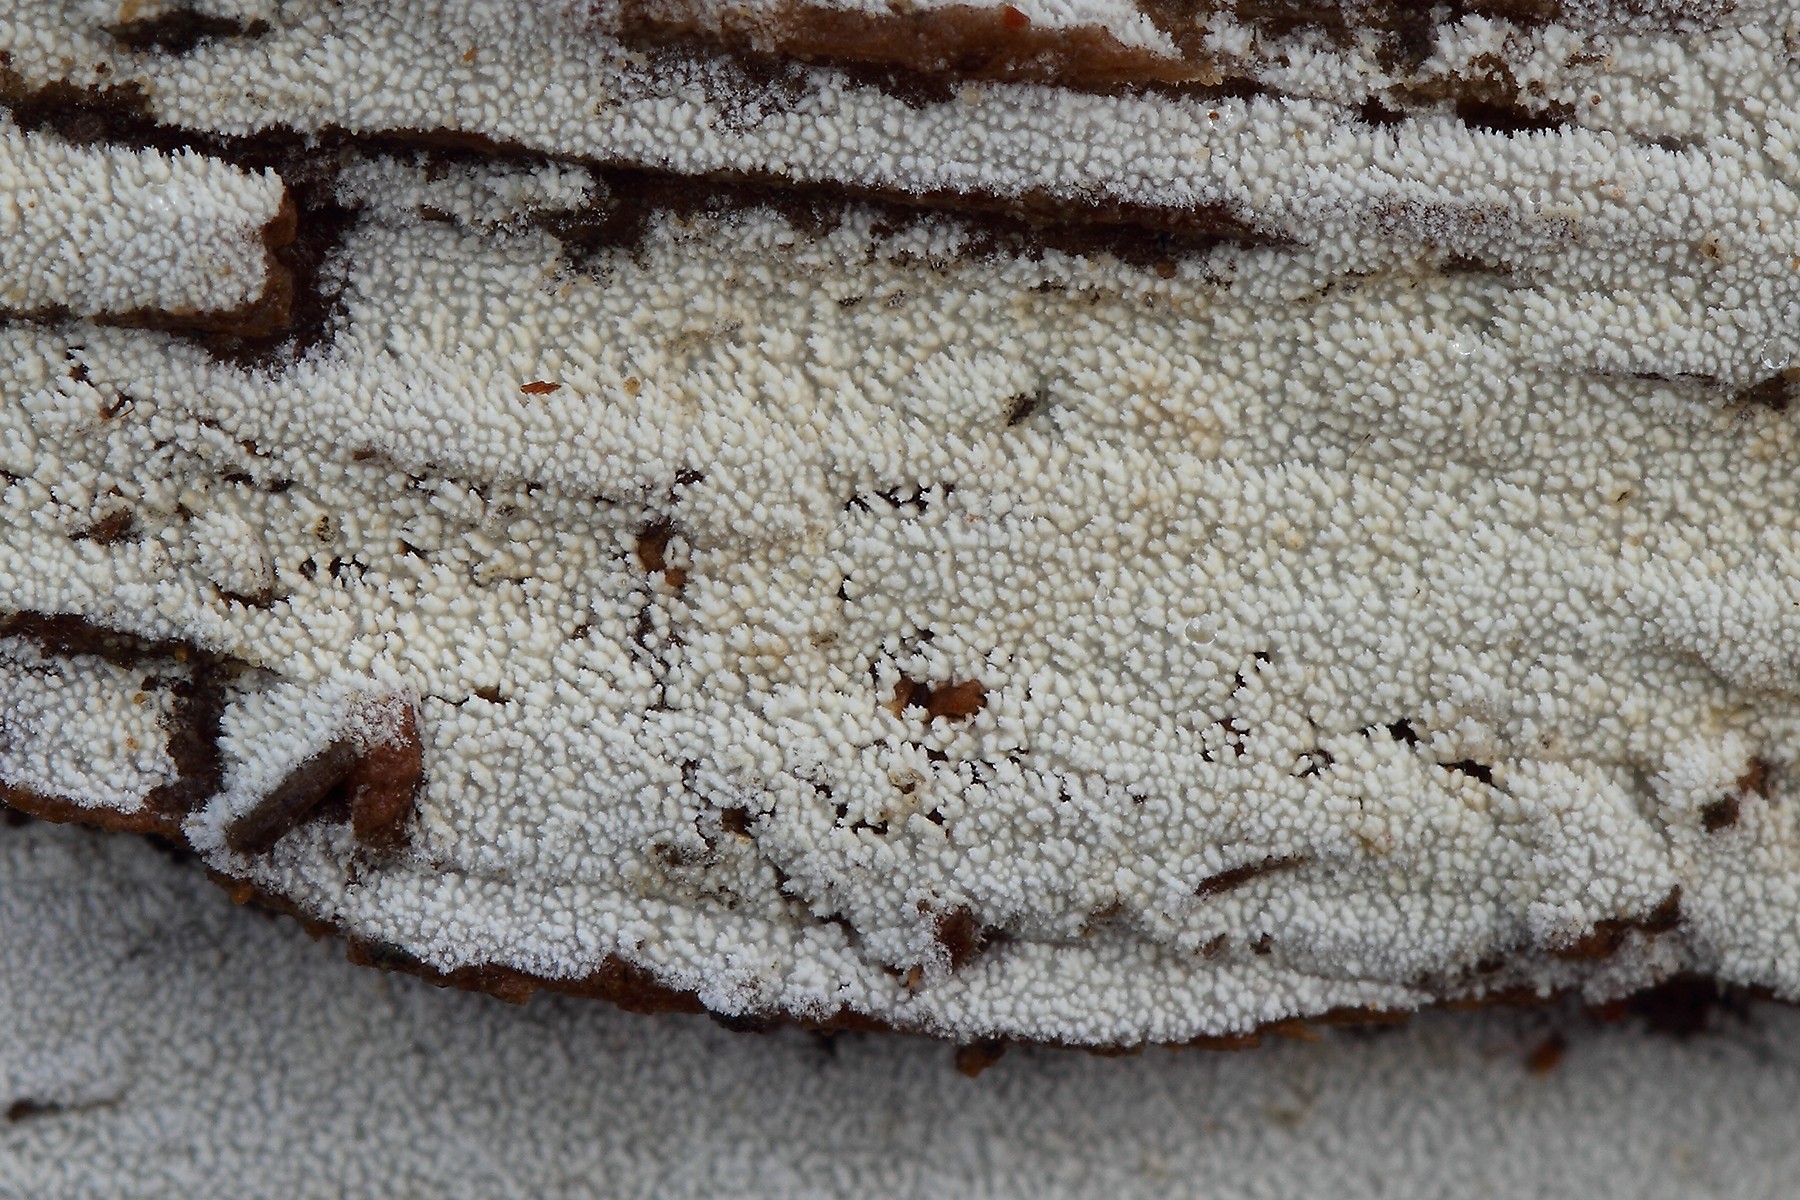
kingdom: Fungi
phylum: Basidiomycota
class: Agaricomycetes
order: Hymenochaetales
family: Schizoporaceae
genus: Xylodon
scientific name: Xylodon nesporii
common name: fintandet tandsvamp
